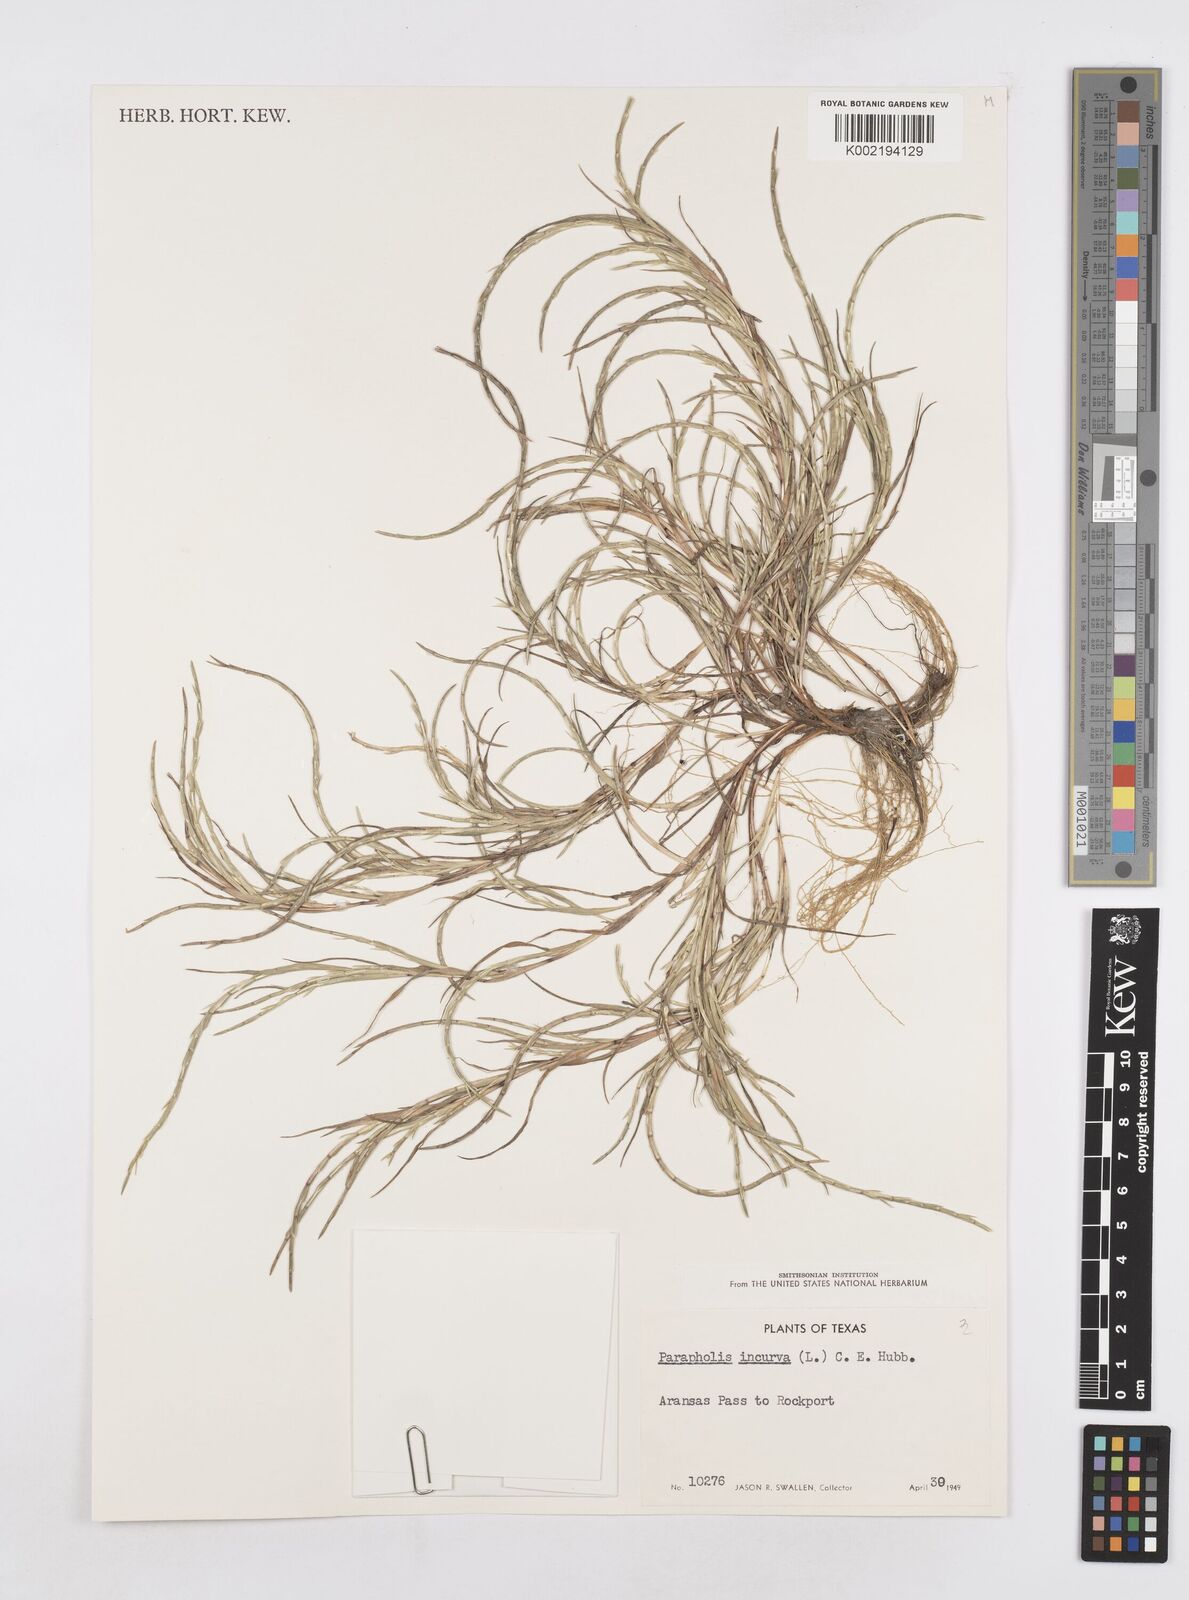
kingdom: Plantae
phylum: Tracheophyta
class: Liliopsida
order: Poales
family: Poaceae
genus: Parapholis
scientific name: Parapholis incurva
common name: Curved sicklegrass
